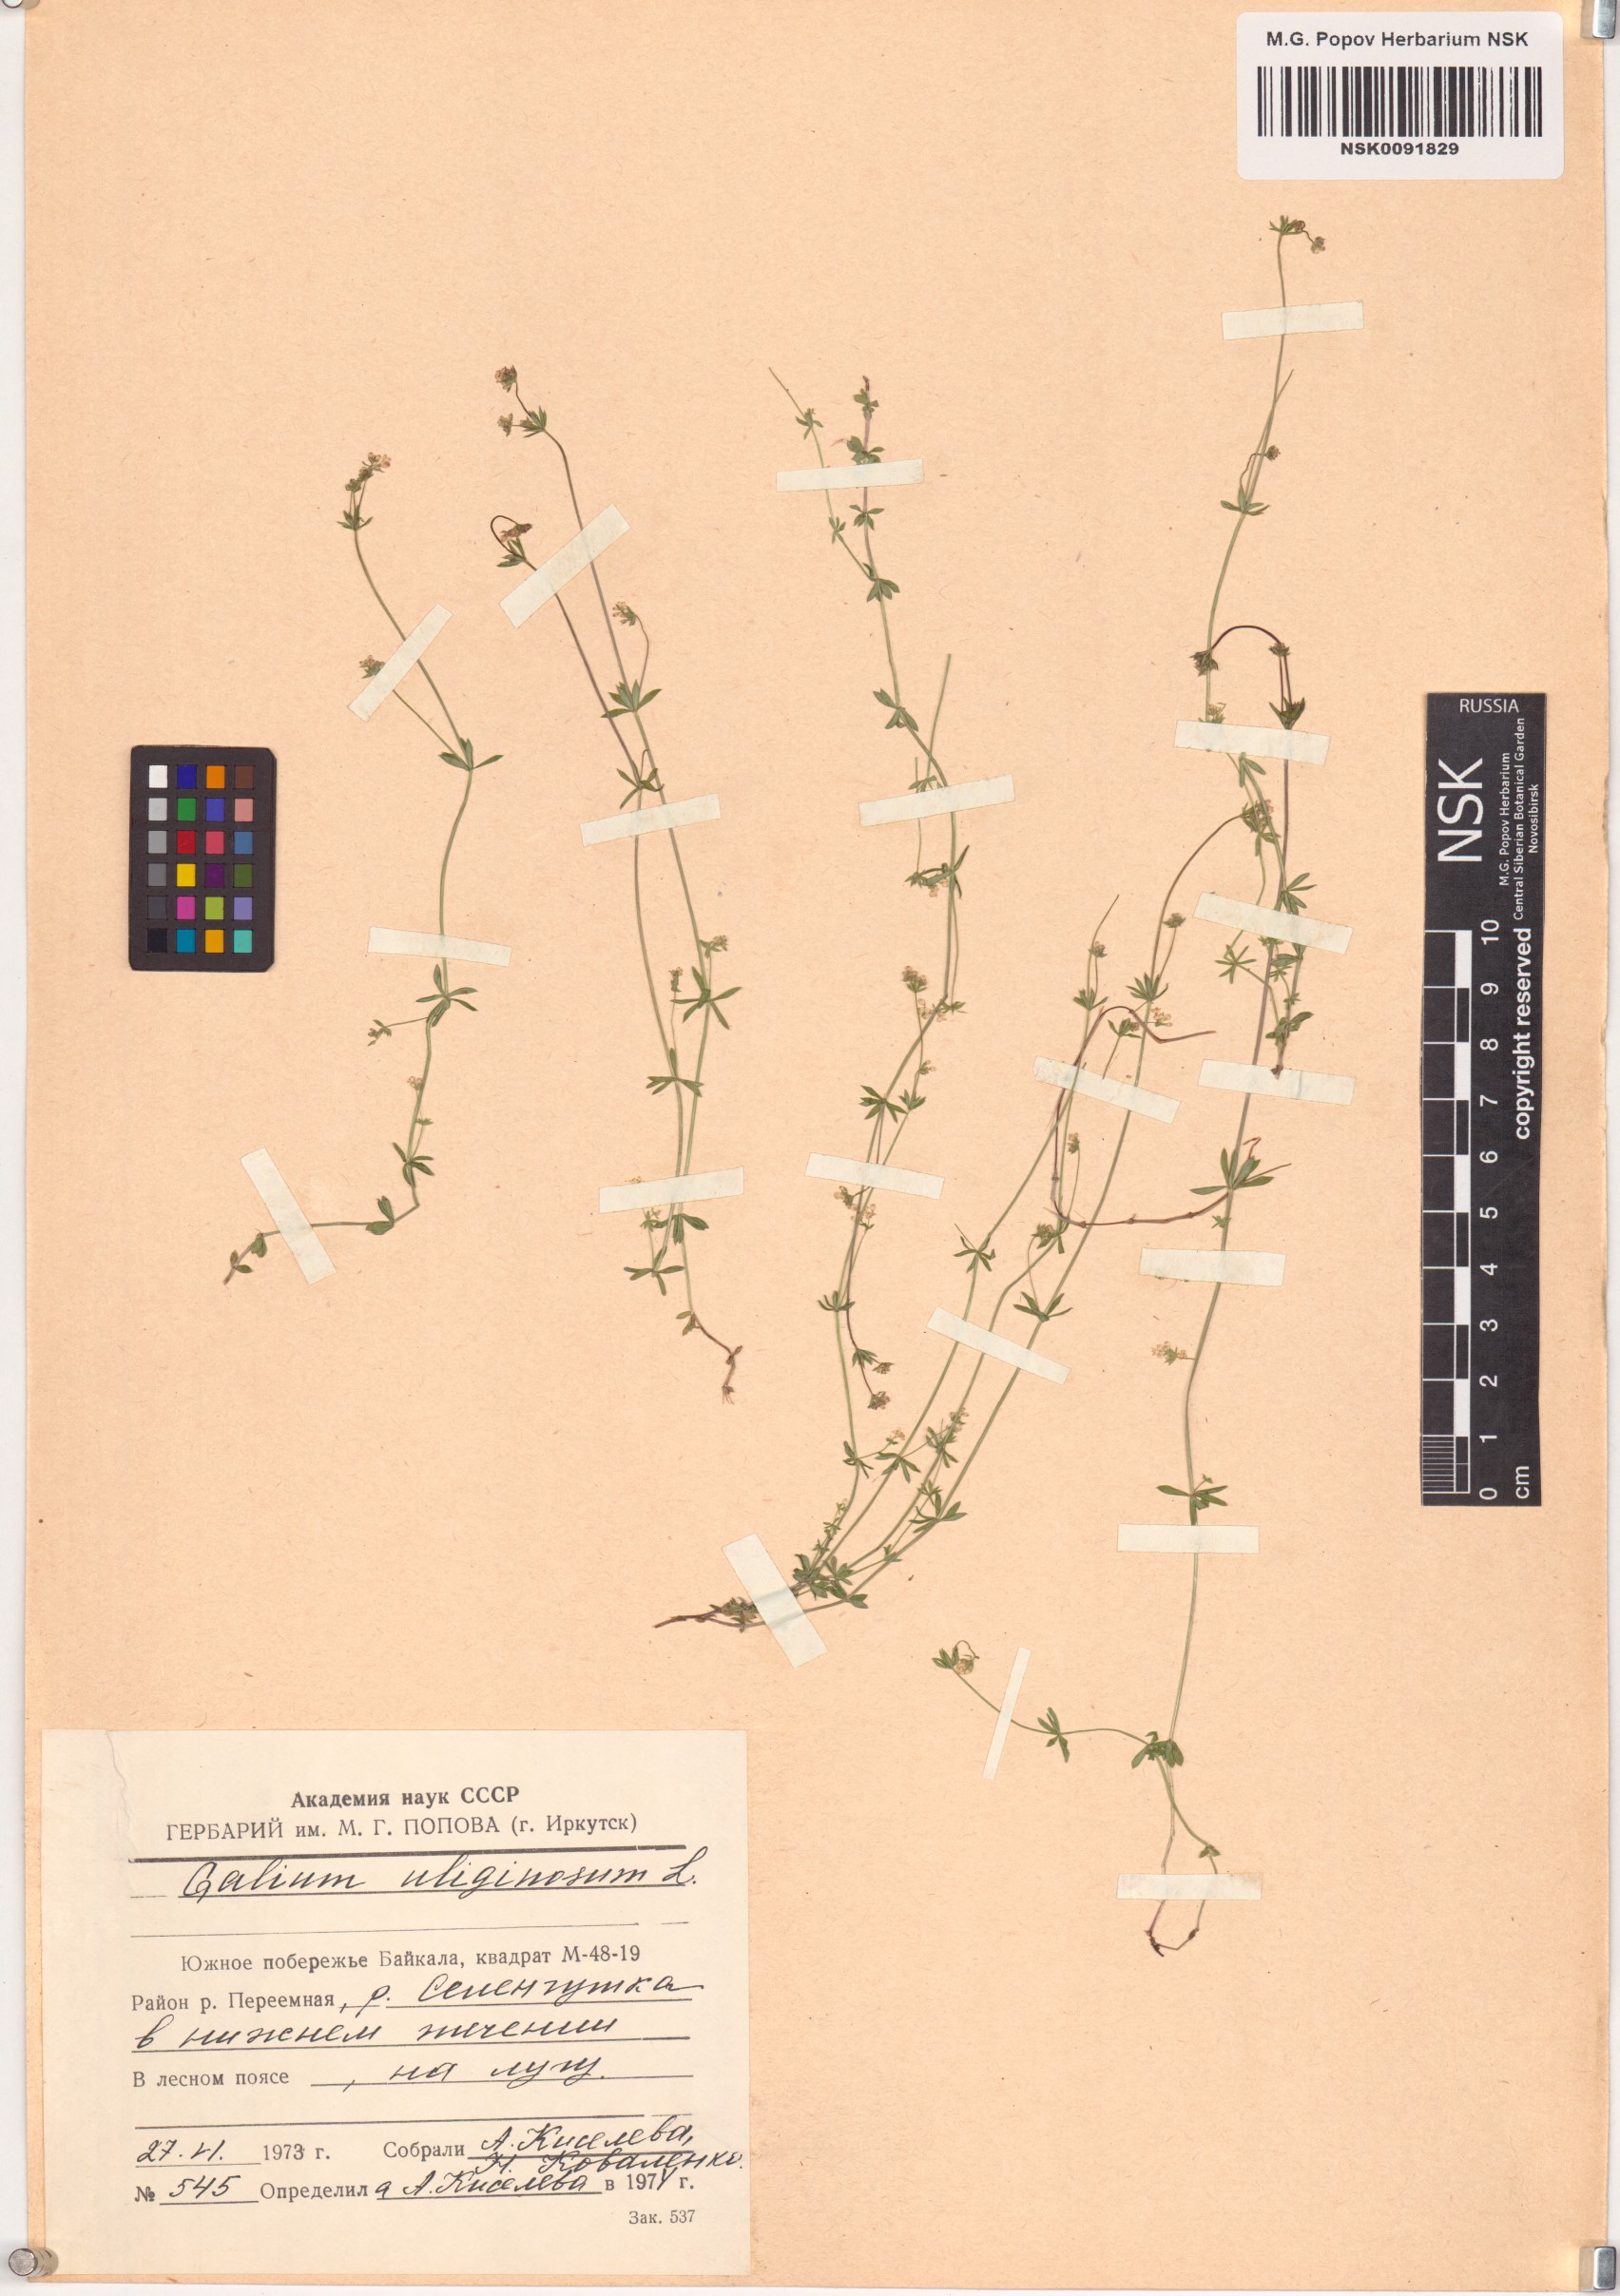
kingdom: Plantae
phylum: Tracheophyta
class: Magnoliopsida
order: Gentianales
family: Rubiaceae
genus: Galium
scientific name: Galium uliginosum
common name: Fen bedstraw
